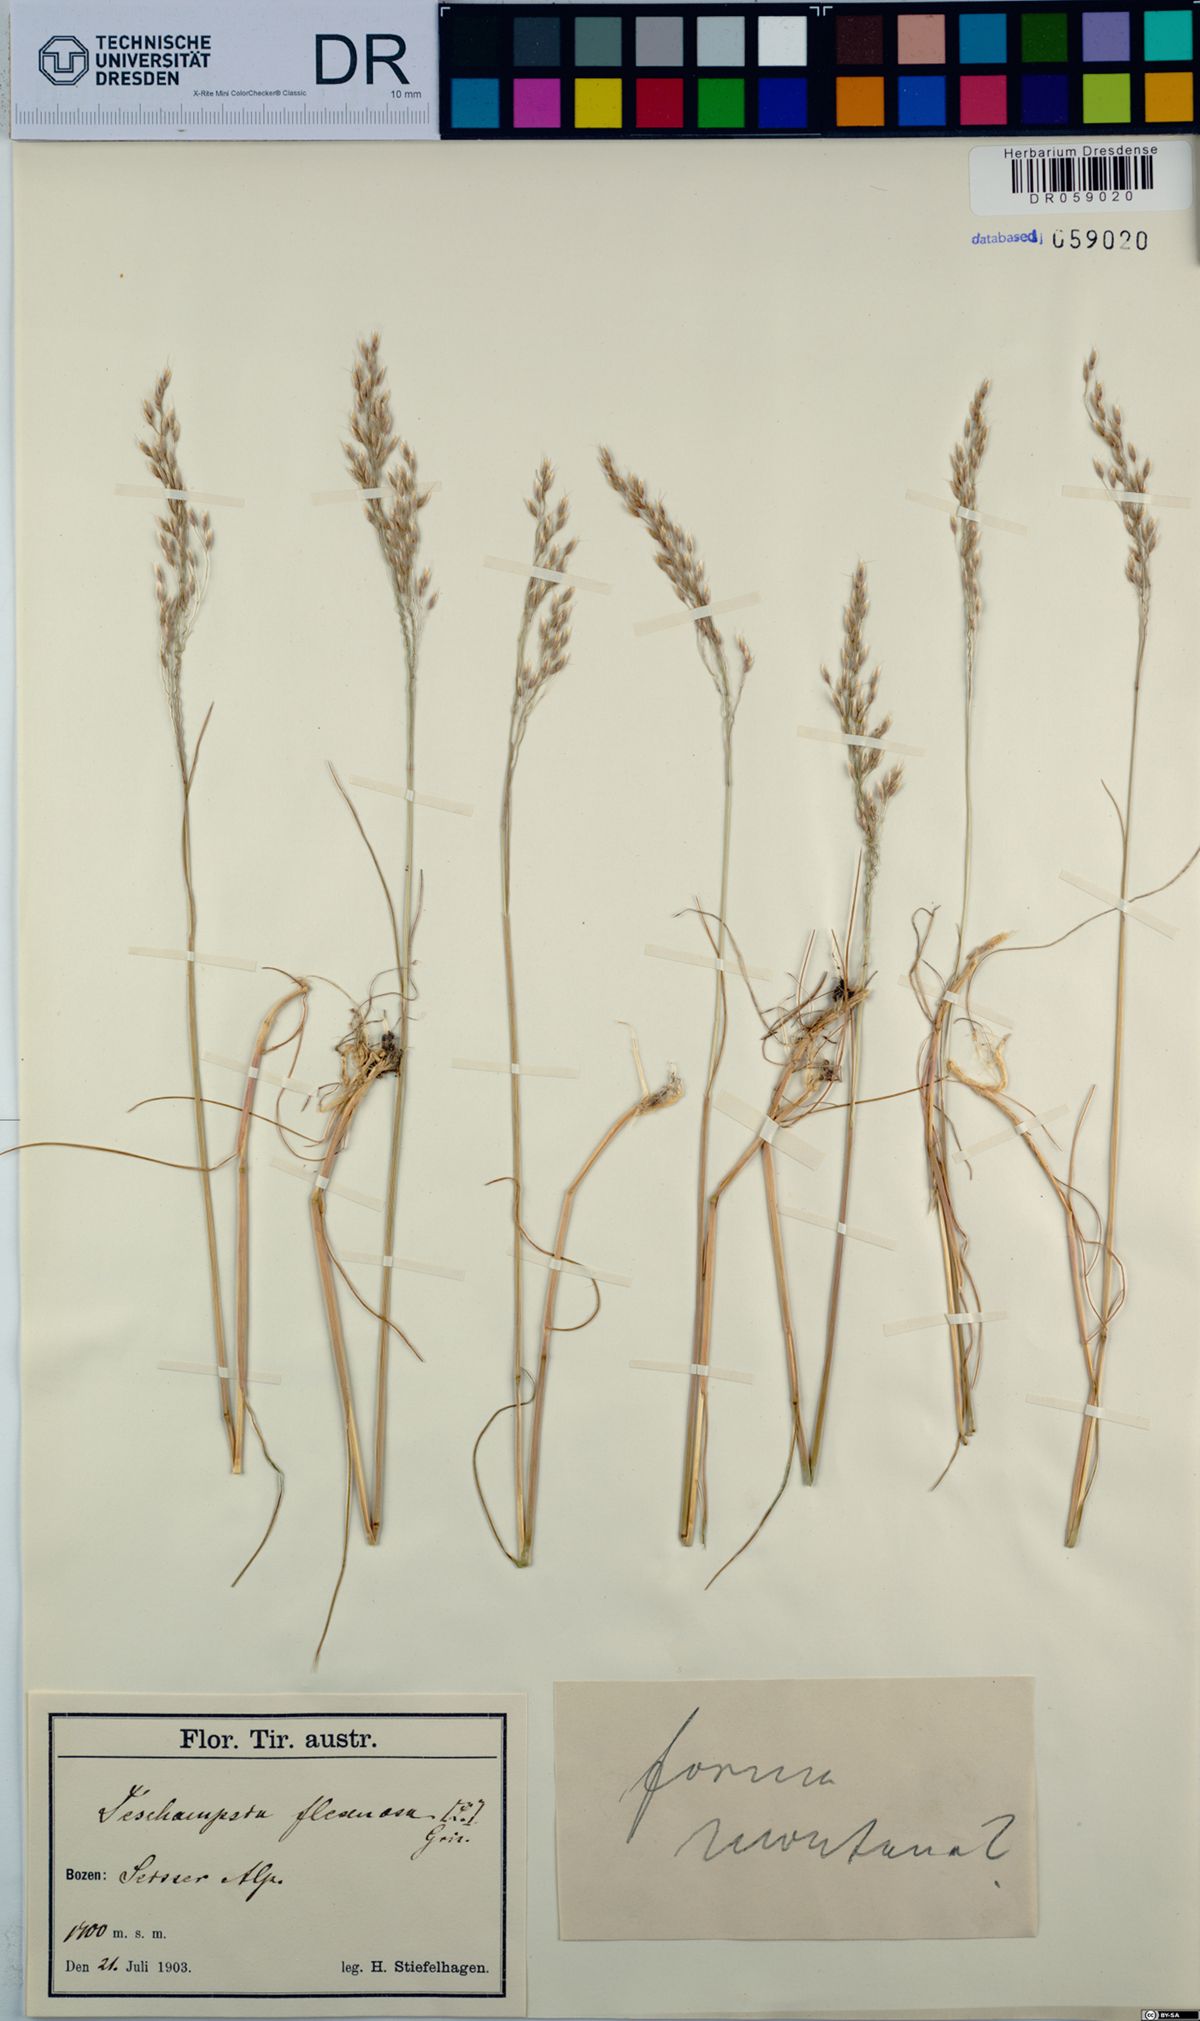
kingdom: Plantae
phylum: Tracheophyta
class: Liliopsida
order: Poales
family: Poaceae
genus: Avenella
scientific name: Avenella flexuosa
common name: Wavy hairgrass
